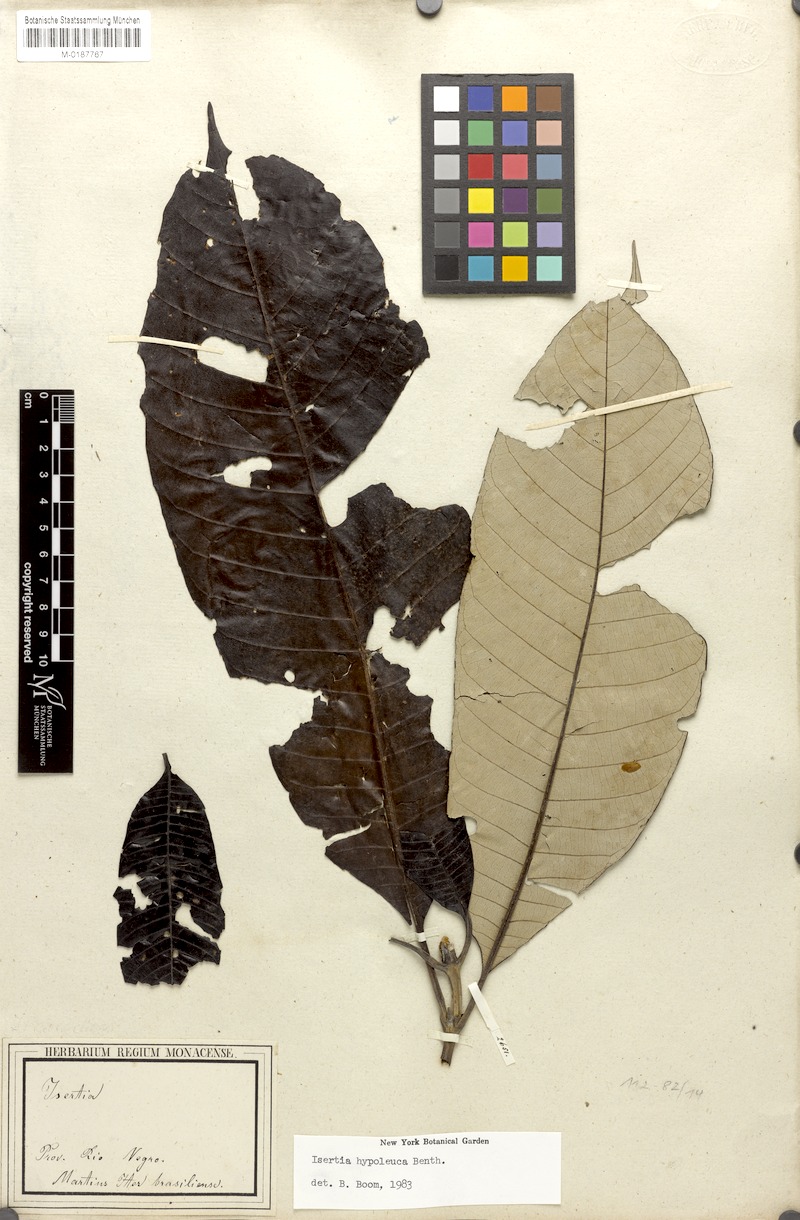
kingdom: Plantae
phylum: Tracheophyta
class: Magnoliopsida
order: Gentianales
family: Rubiaceae
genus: Isertia
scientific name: Isertia hypoleuca
